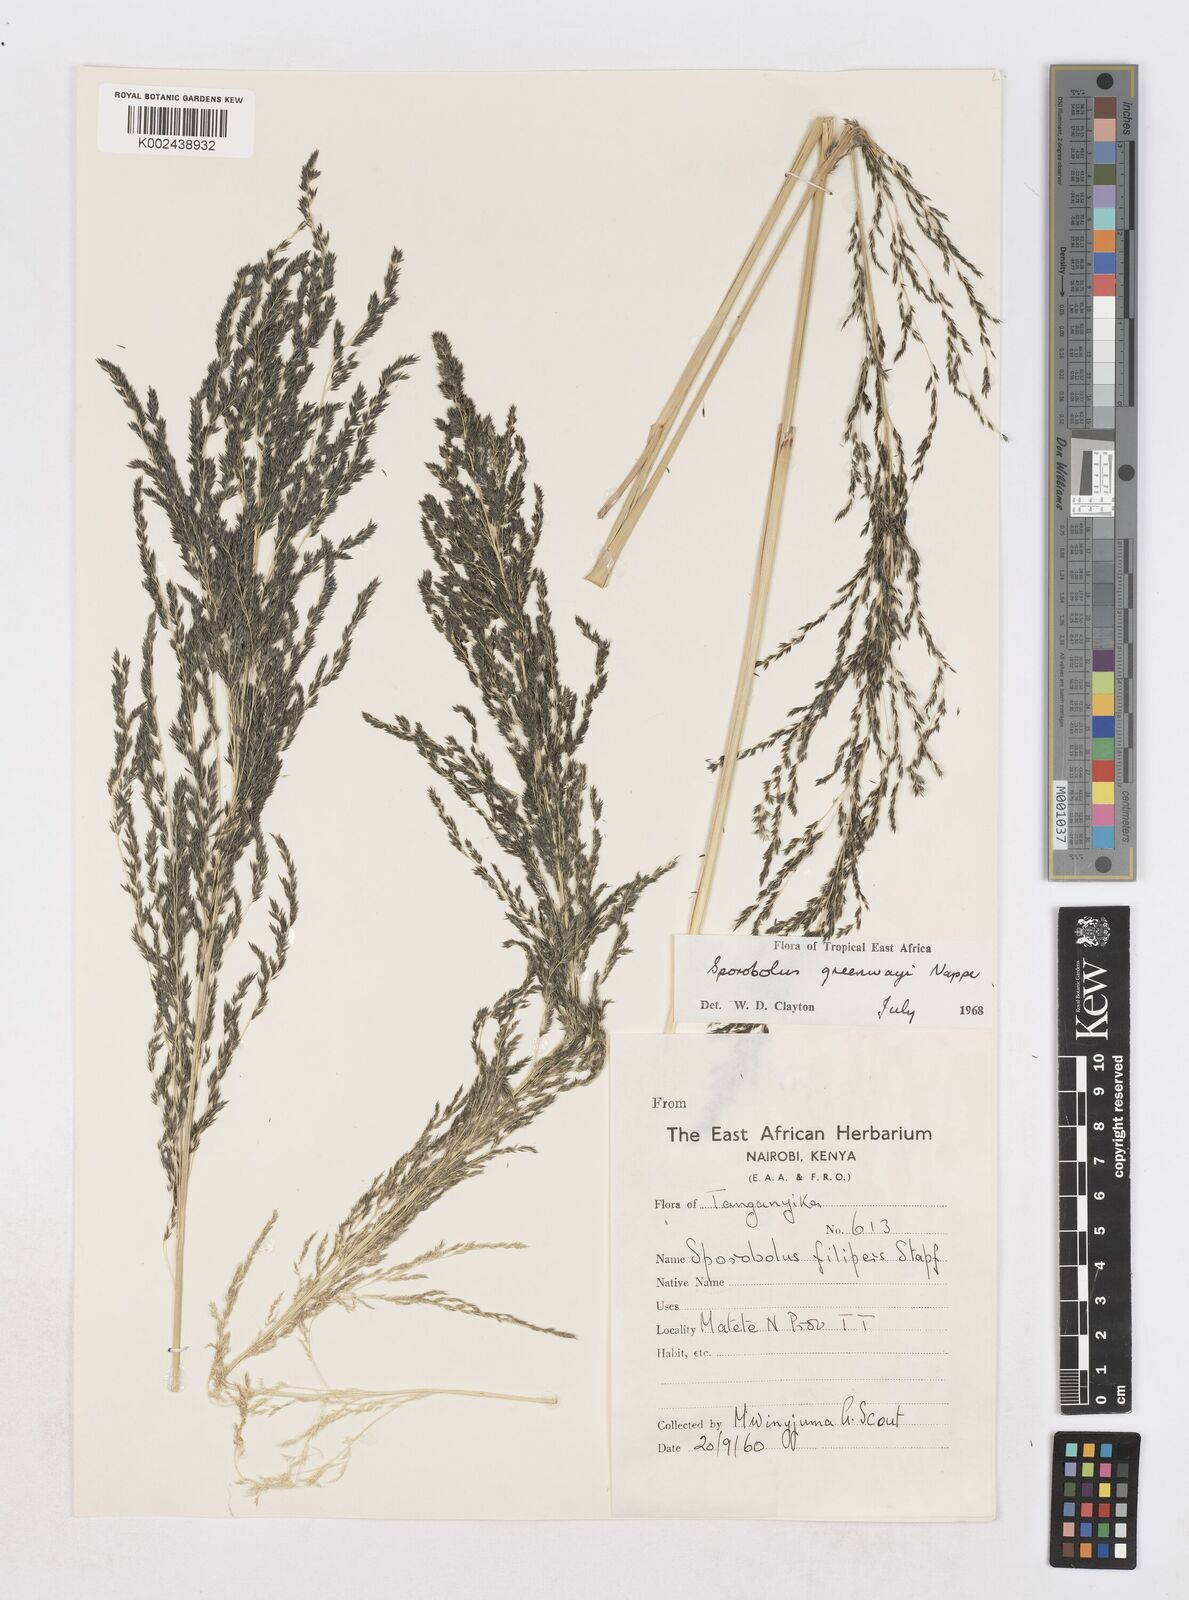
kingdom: Plantae
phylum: Tracheophyta
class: Liliopsida
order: Poales
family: Poaceae
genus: Sporobolus
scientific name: Sporobolus macranthelus
